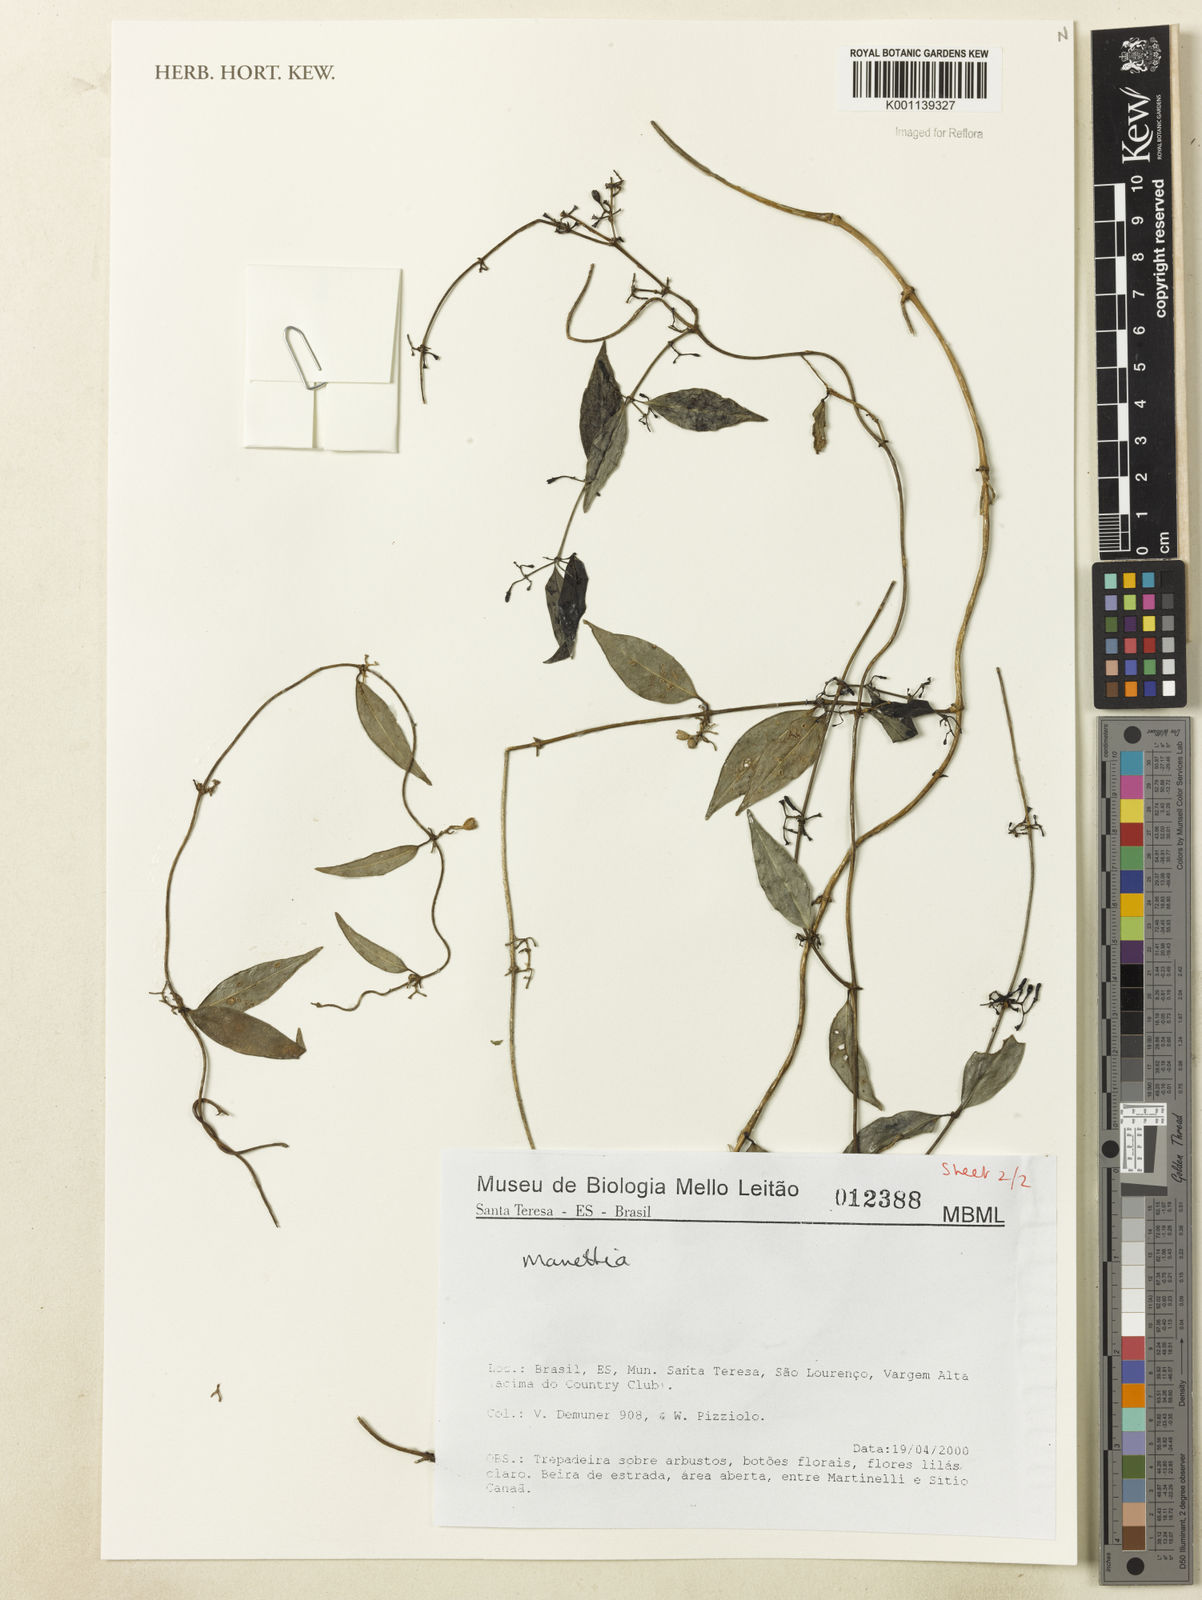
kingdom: Plantae
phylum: Tracheophyta
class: Magnoliopsida
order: Gentianales
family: Rubiaceae
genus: Manettia
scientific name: Manettia
